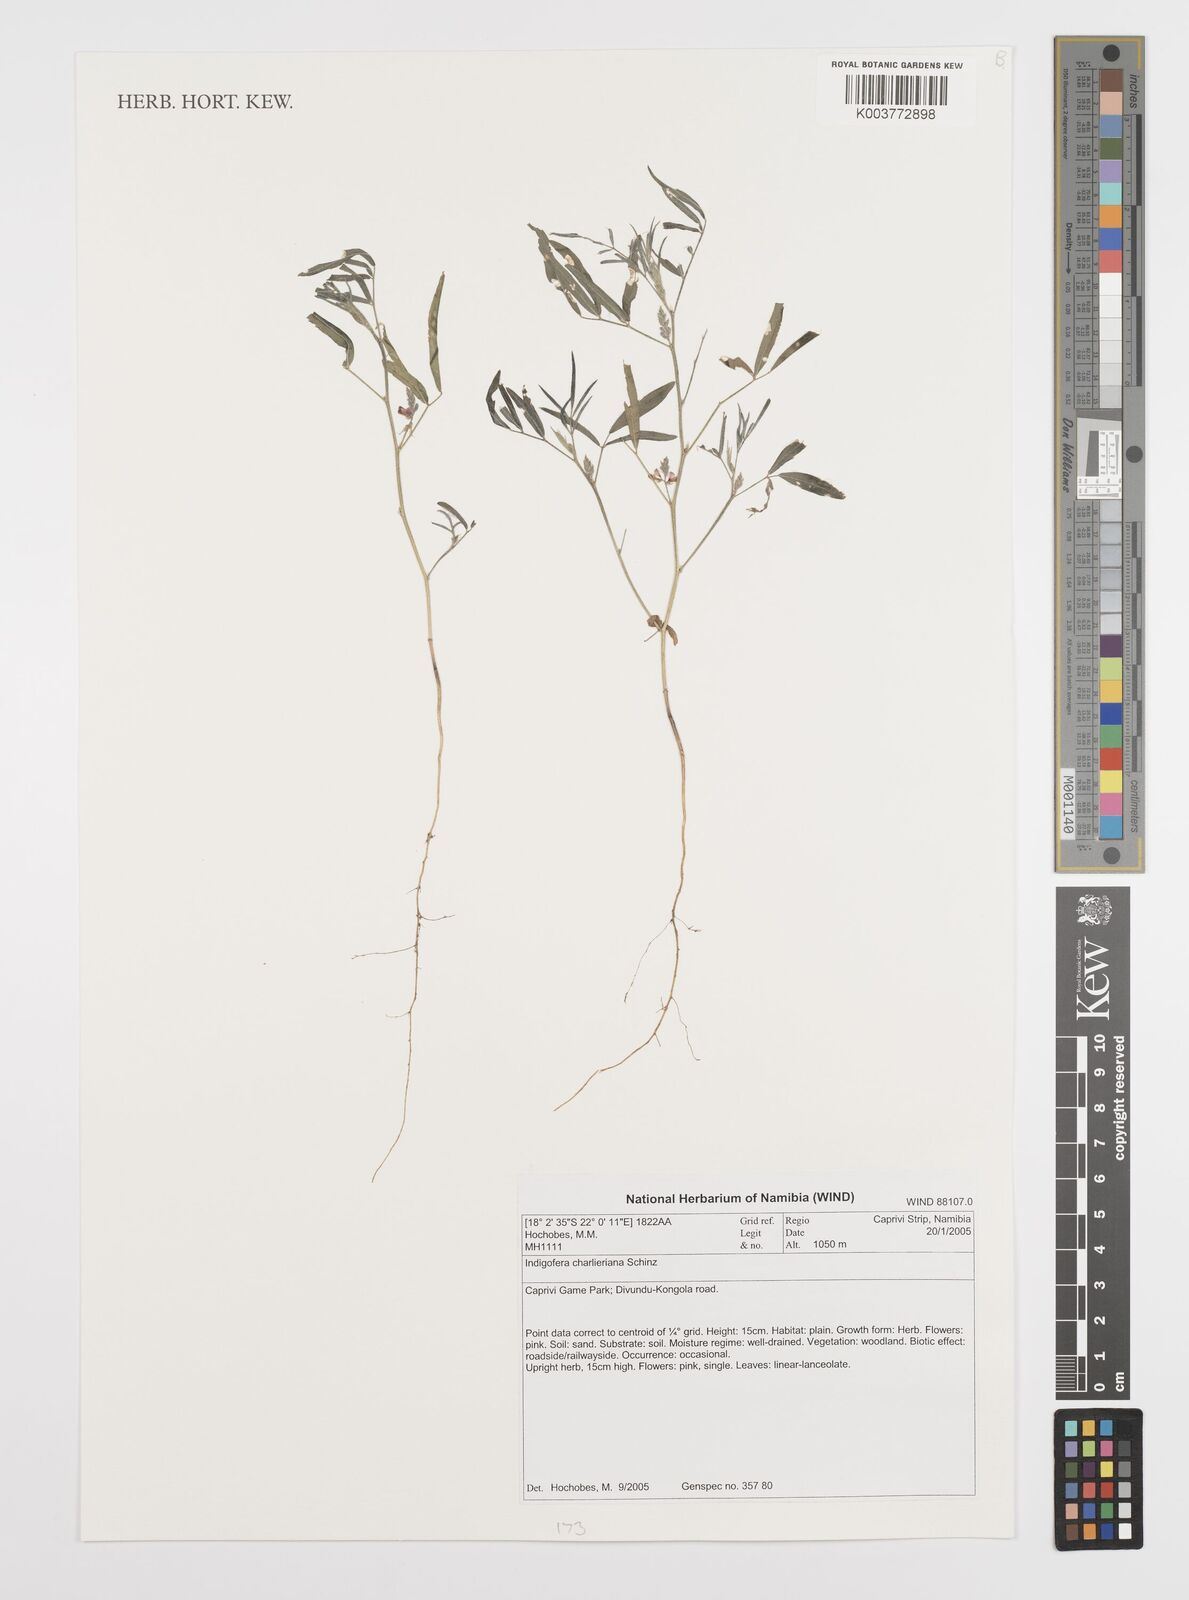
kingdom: Plantae
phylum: Tracheophyta
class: Magnoliopsida
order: Fabales
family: Fabaceae
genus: Indigofera
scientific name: Indigofera charlieriana
